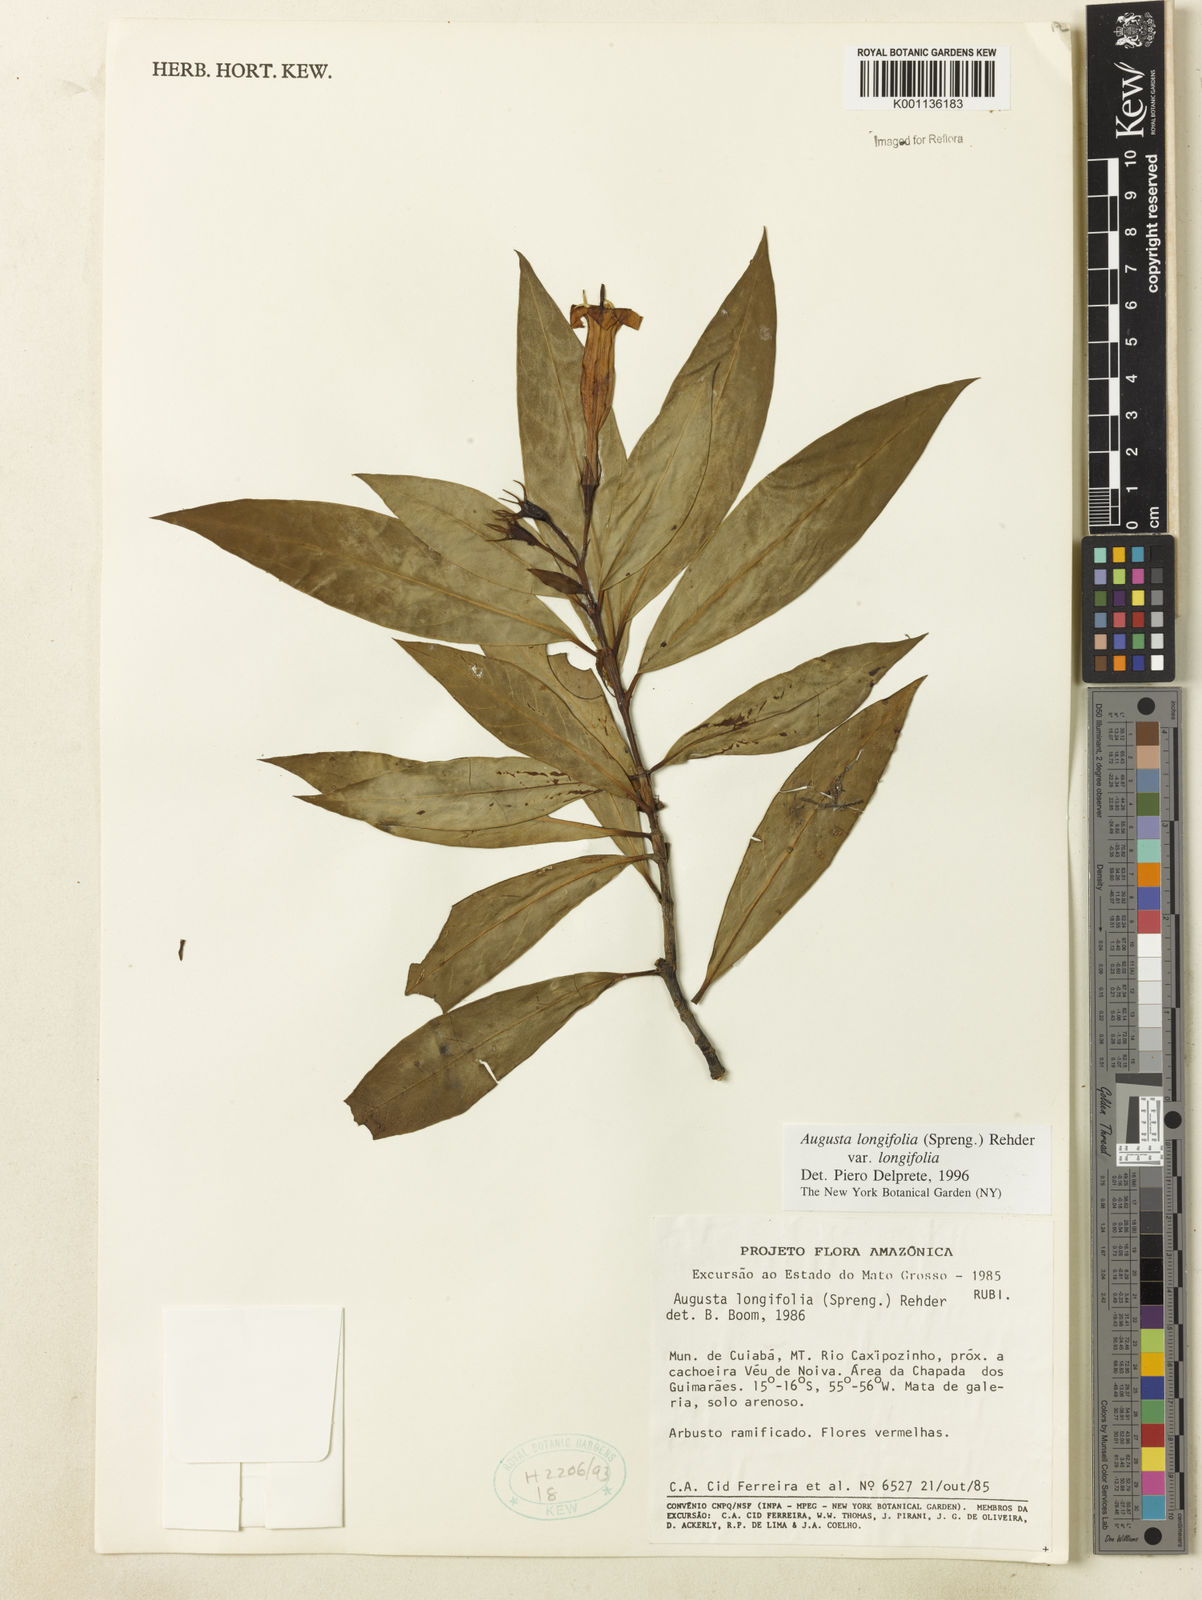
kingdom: Plantae
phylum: Tracheophyta
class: Magnoliopsida
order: Gentianales
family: Rubiaceae
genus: Augusta
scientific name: Augusta longifolia
